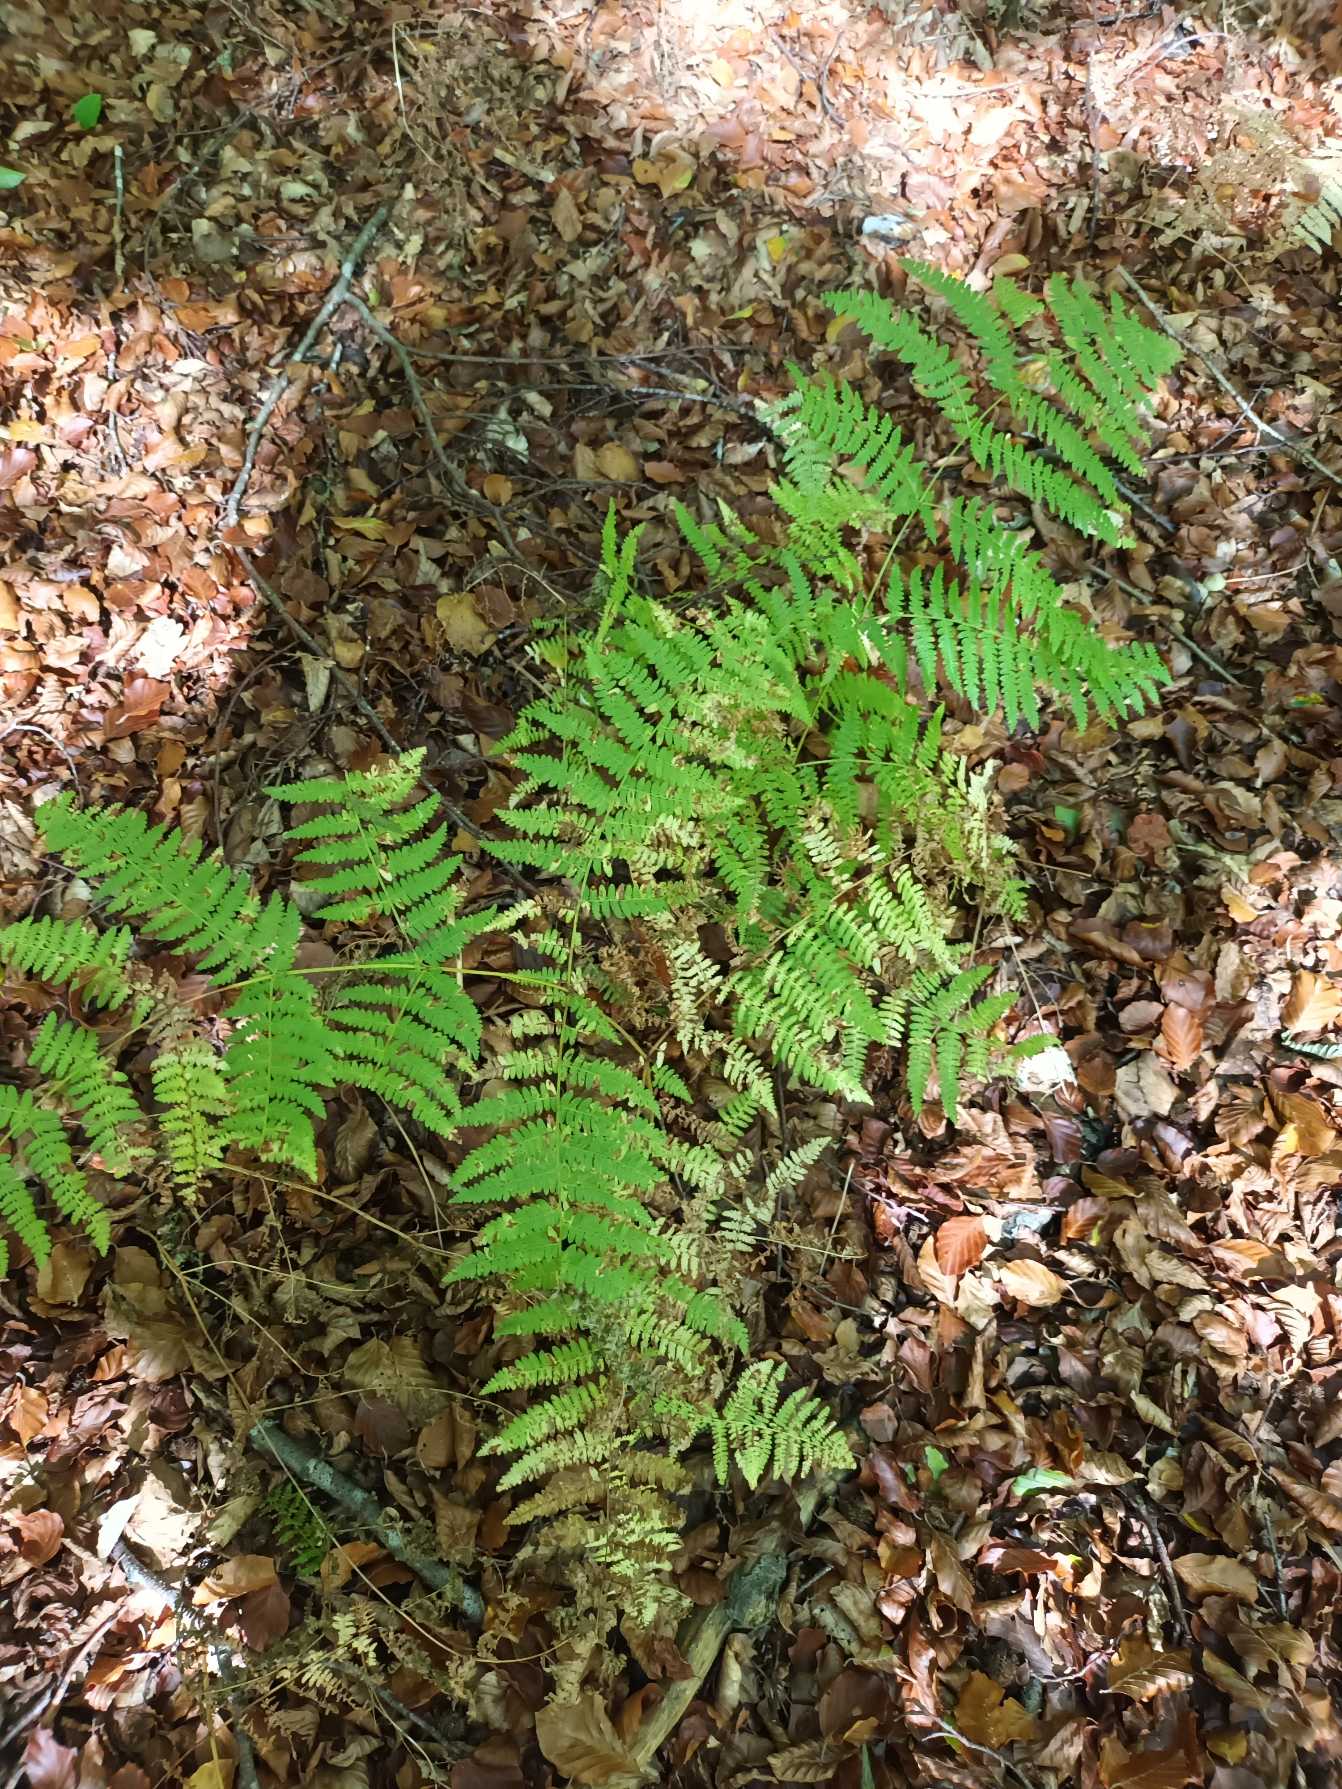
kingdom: Plantae
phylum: Tracheophyta
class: Polypodiopsida
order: Polypodiales
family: Dennstaedtiaceae
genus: Pteridium
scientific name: Pteridium aquilinum
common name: Ørnebregne
